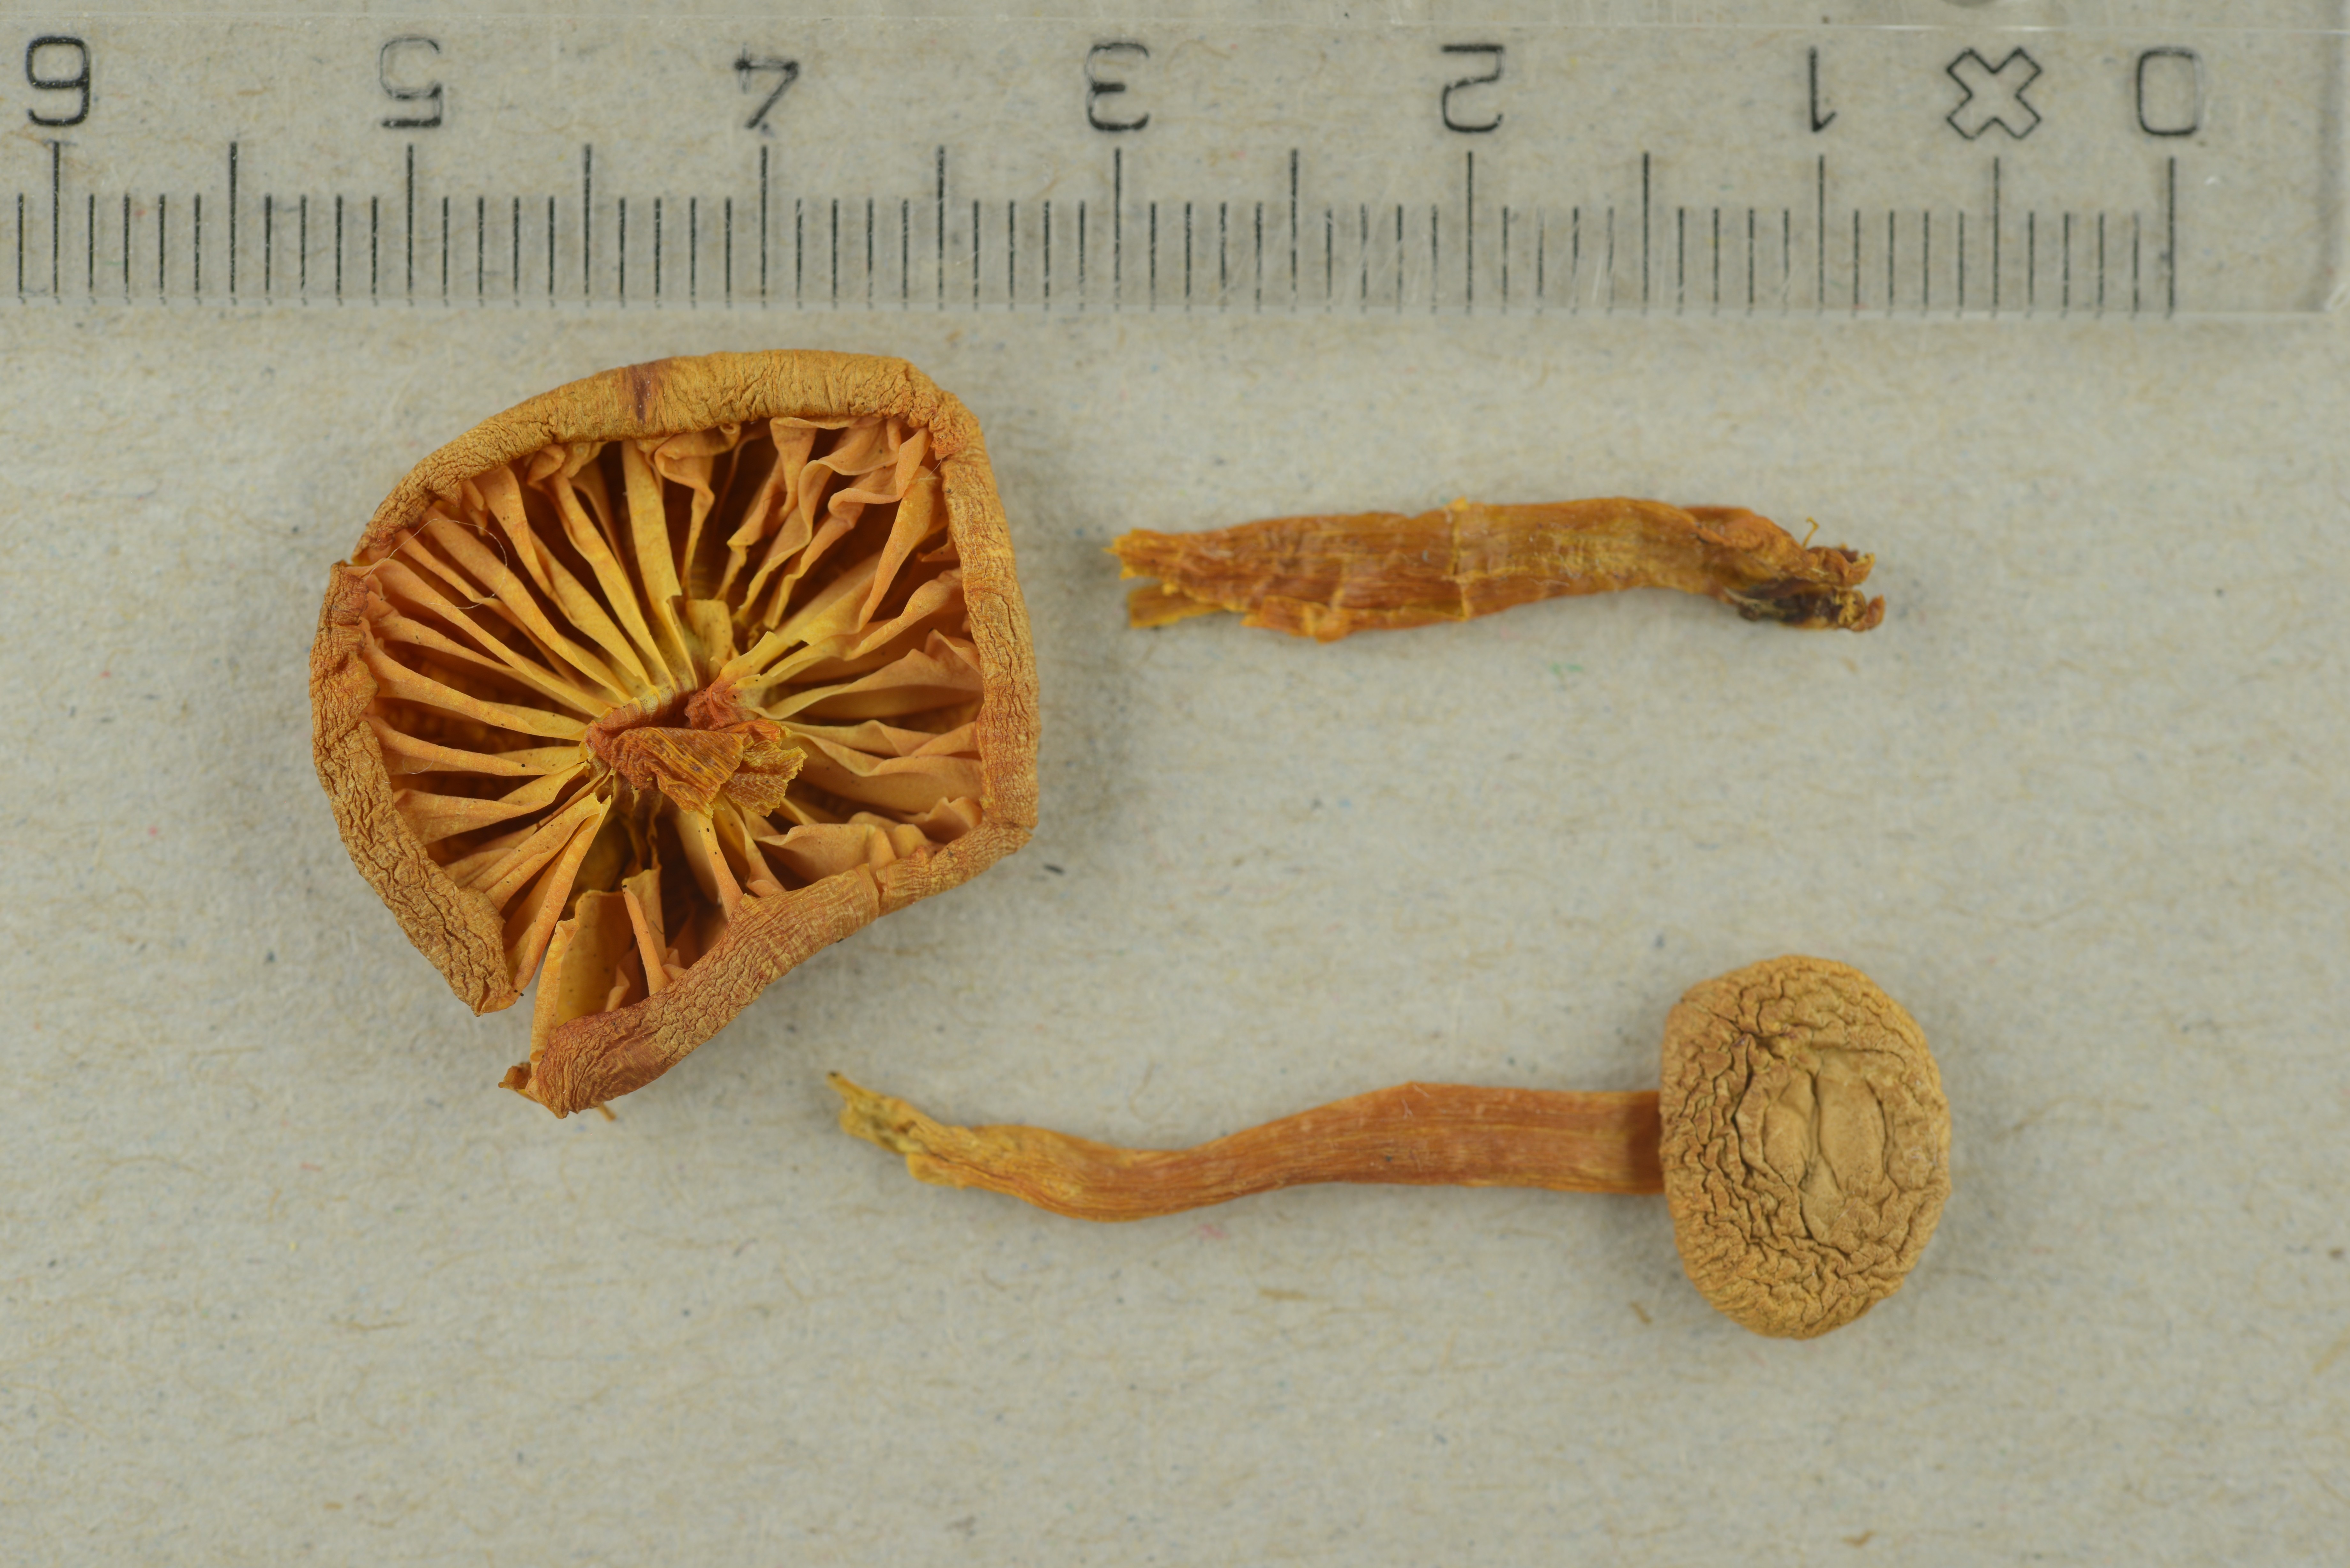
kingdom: Fungi
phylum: Basidiomycota
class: Agaricomycetes
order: Agaricales
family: Hygrophoraceae
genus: Hygrocybe
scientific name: Hygrocybe substrangulata
